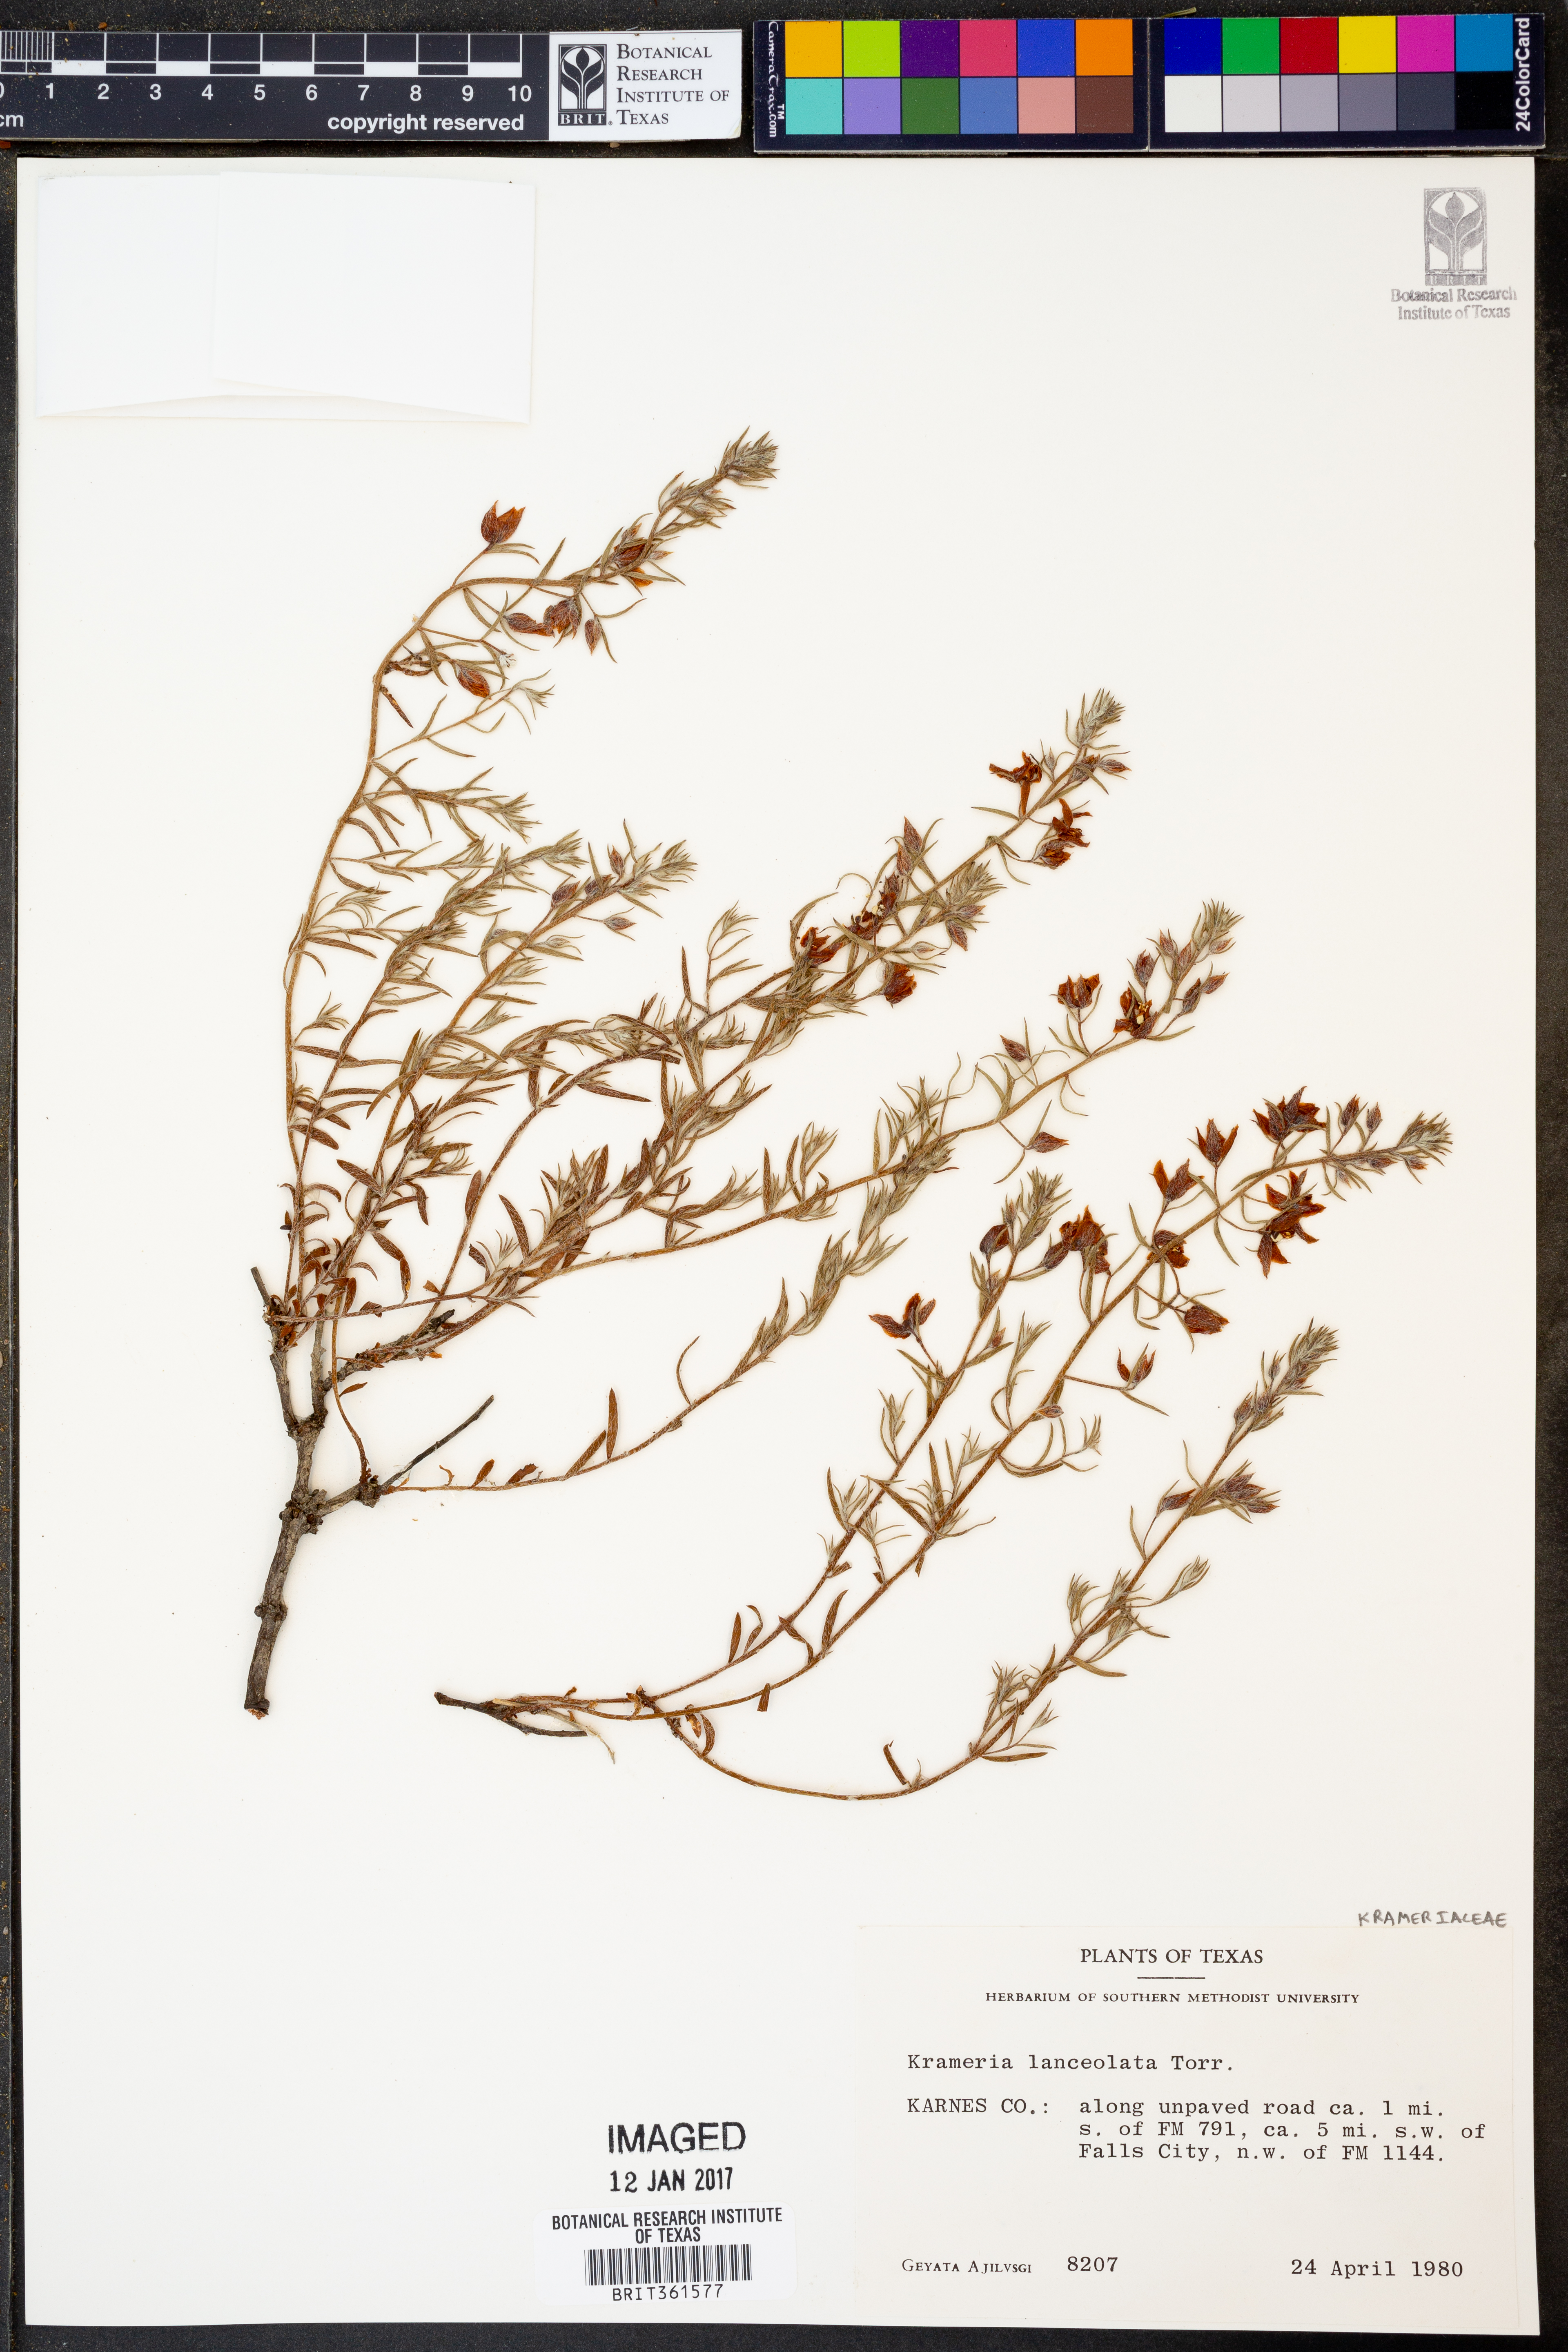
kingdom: Plantae
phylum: Tracheophyta
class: Magnoliopsida
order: Zygophyllales
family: Krameriaceae
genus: Krameria
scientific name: Krameria lanceolata
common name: Ratany
